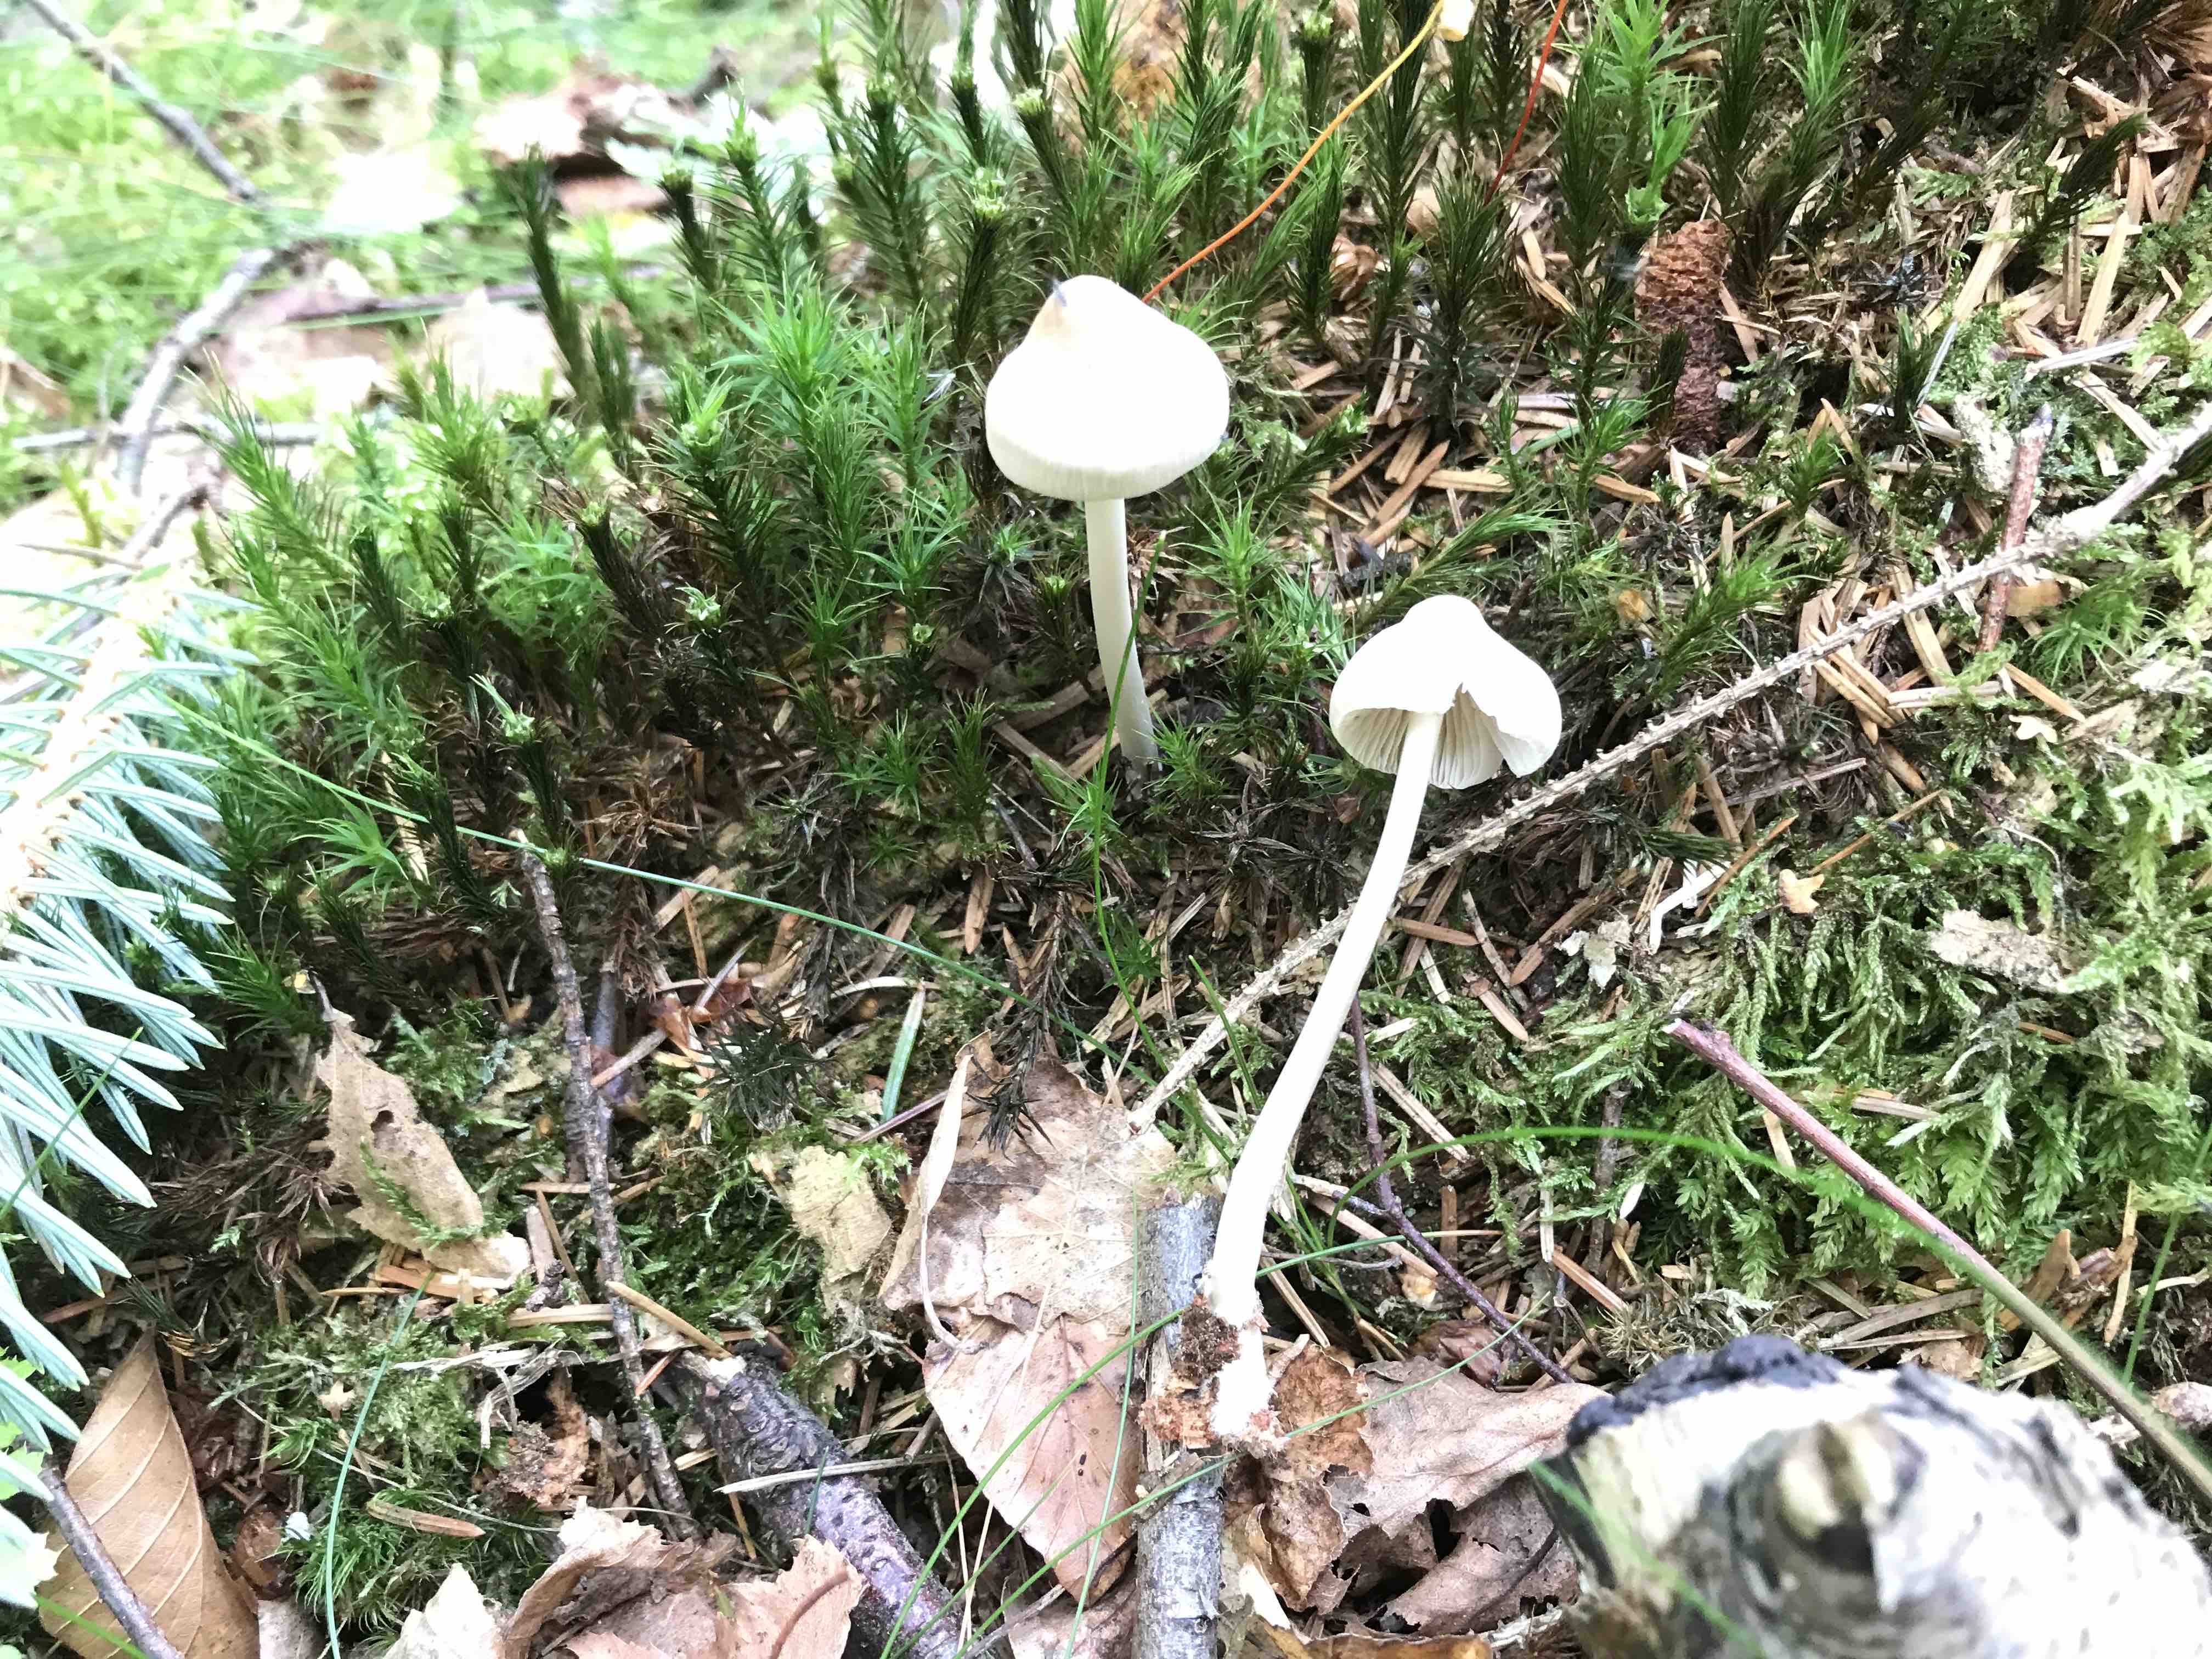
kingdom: Fungi
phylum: Basidiomycota
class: Agaricomycetes
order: Agaricales
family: Mycenaceae
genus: Mycena
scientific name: Mycena galericulata
